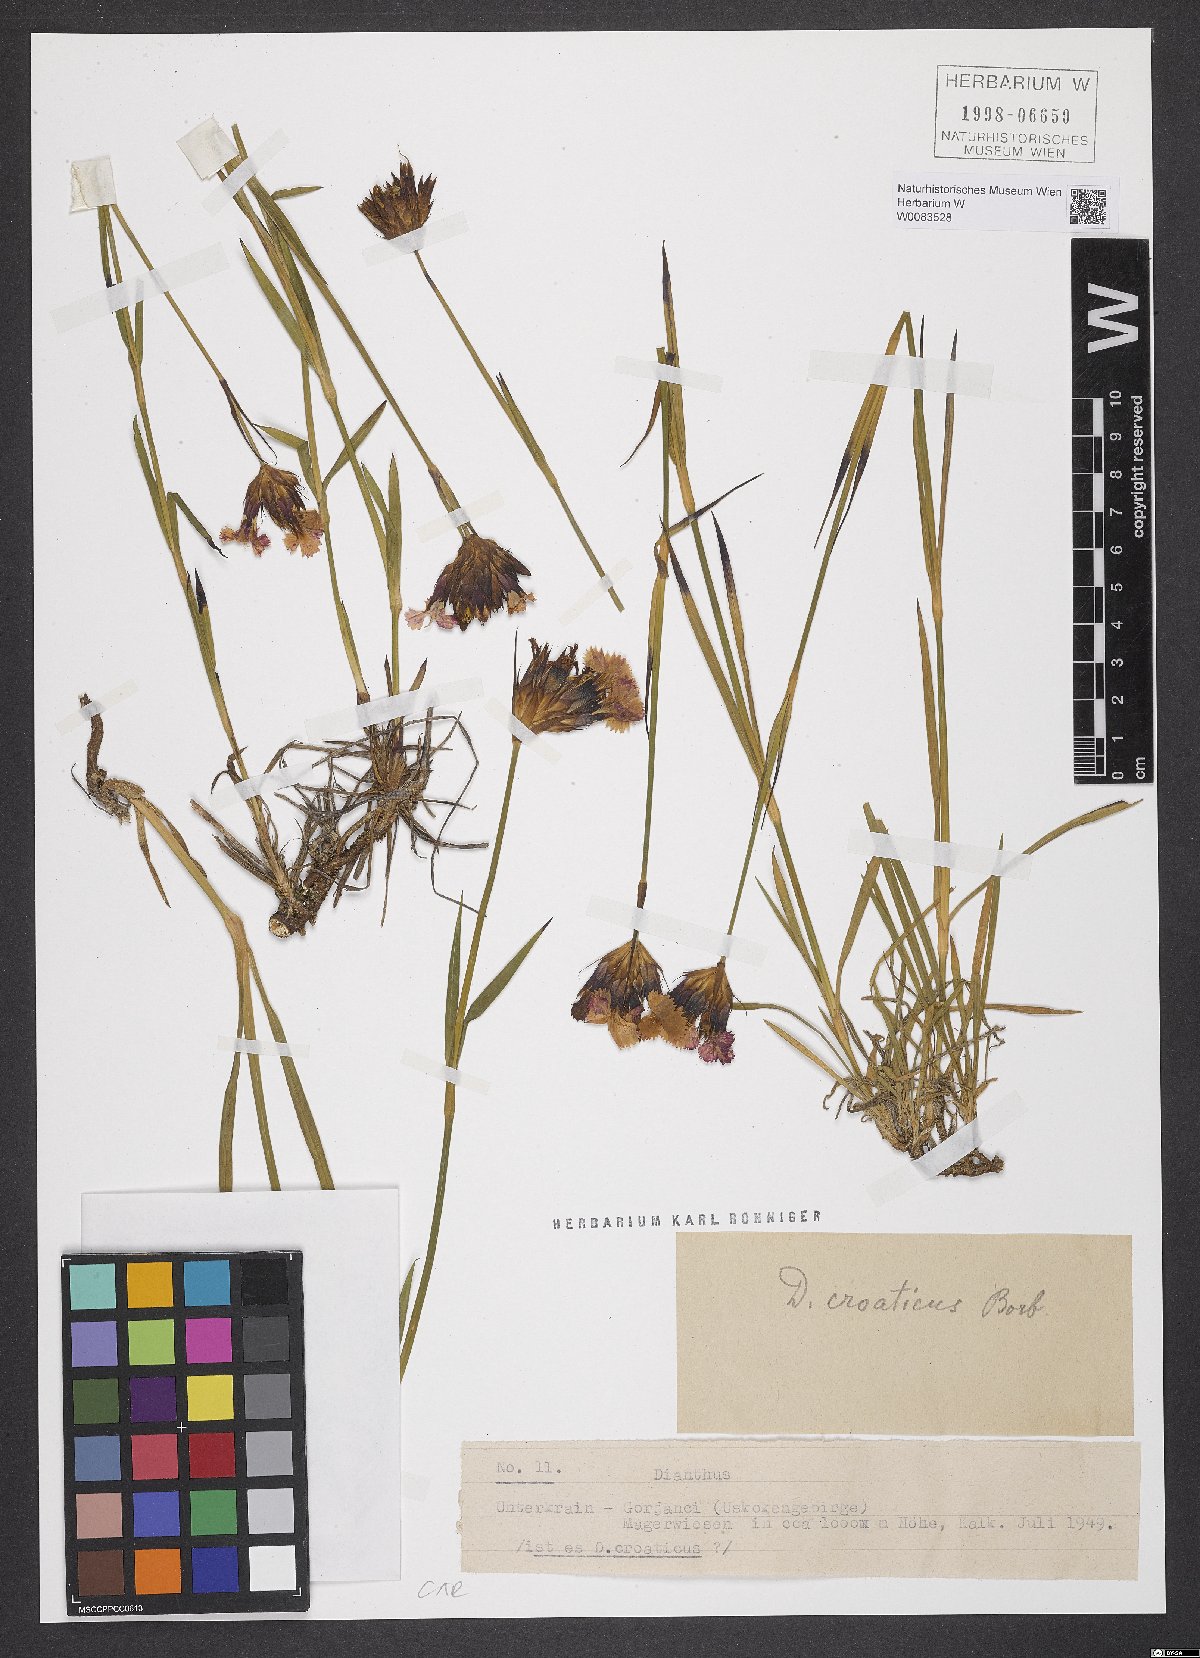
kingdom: Plantae
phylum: Tracheophyta
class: Magnoliopsida
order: Caryophyllales
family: Caryophyllaceae
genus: Dianthus
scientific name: Dianthus giganteus
